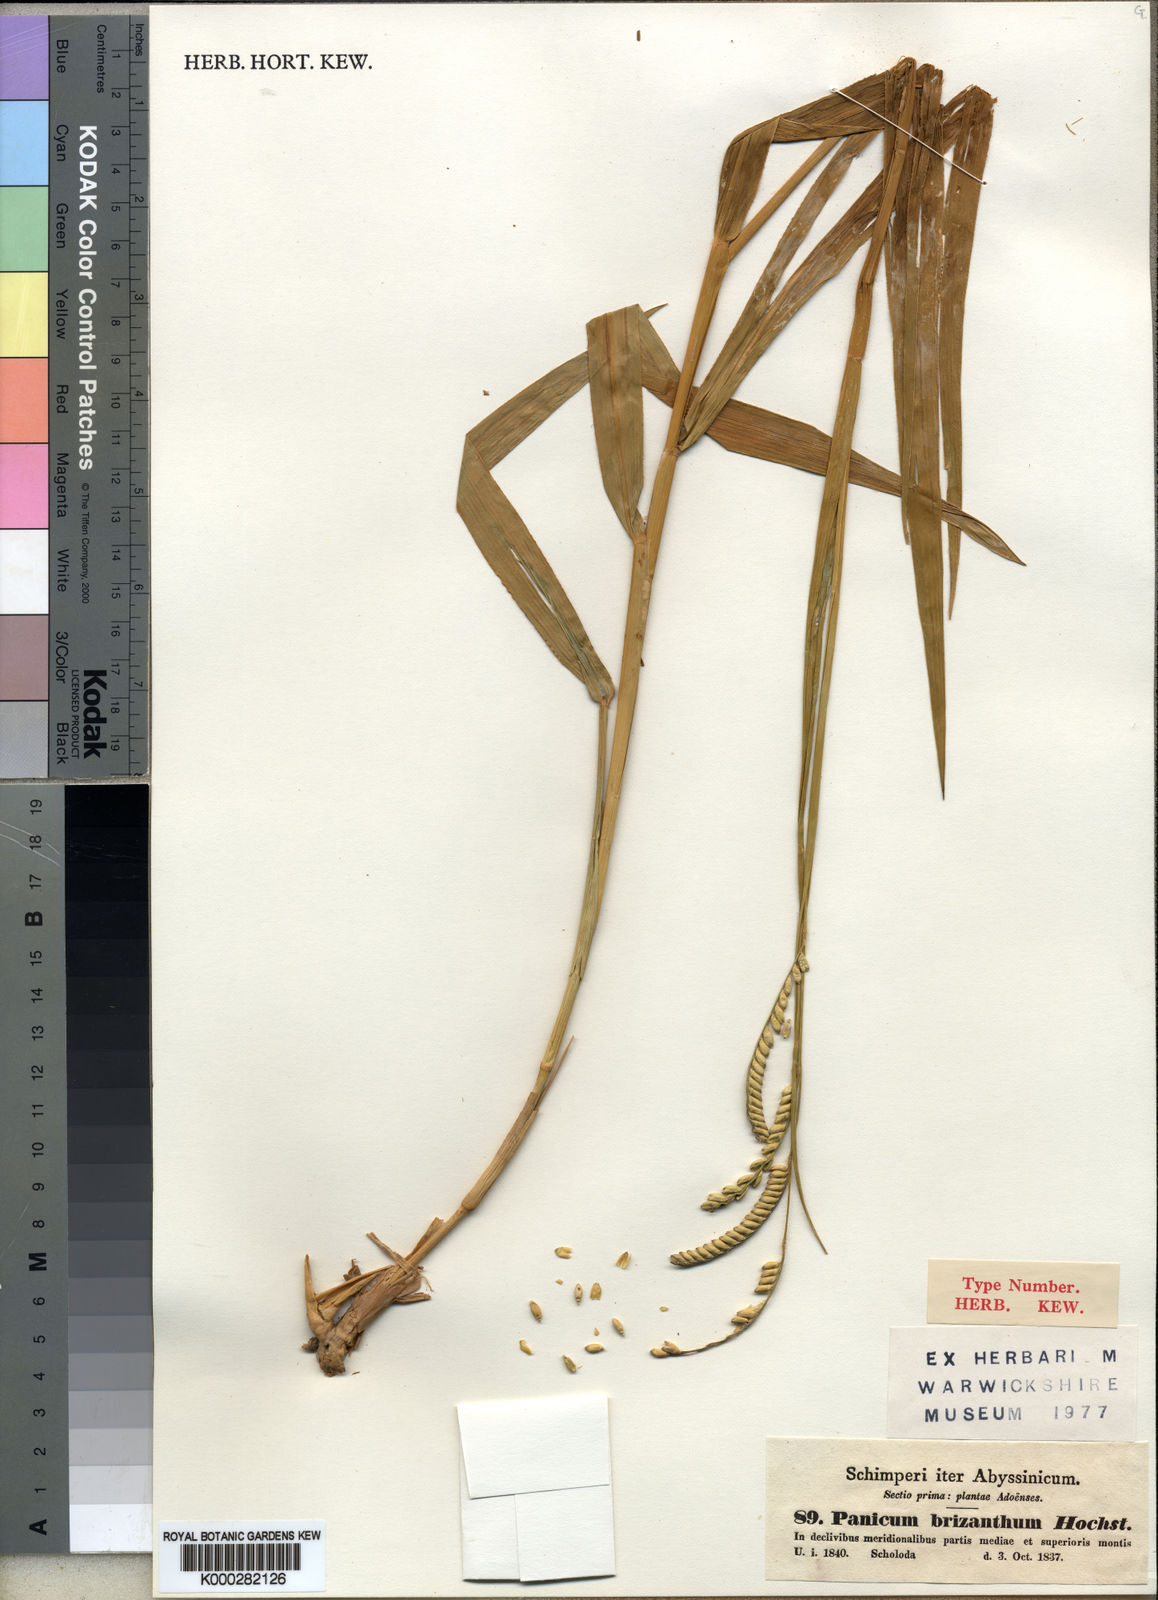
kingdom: Plantae
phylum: Tracheophyta
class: Liliopsida
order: Poales
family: Poaceae
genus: Urochloa
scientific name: Urochloa brizantha
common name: Palisade signalgrass
